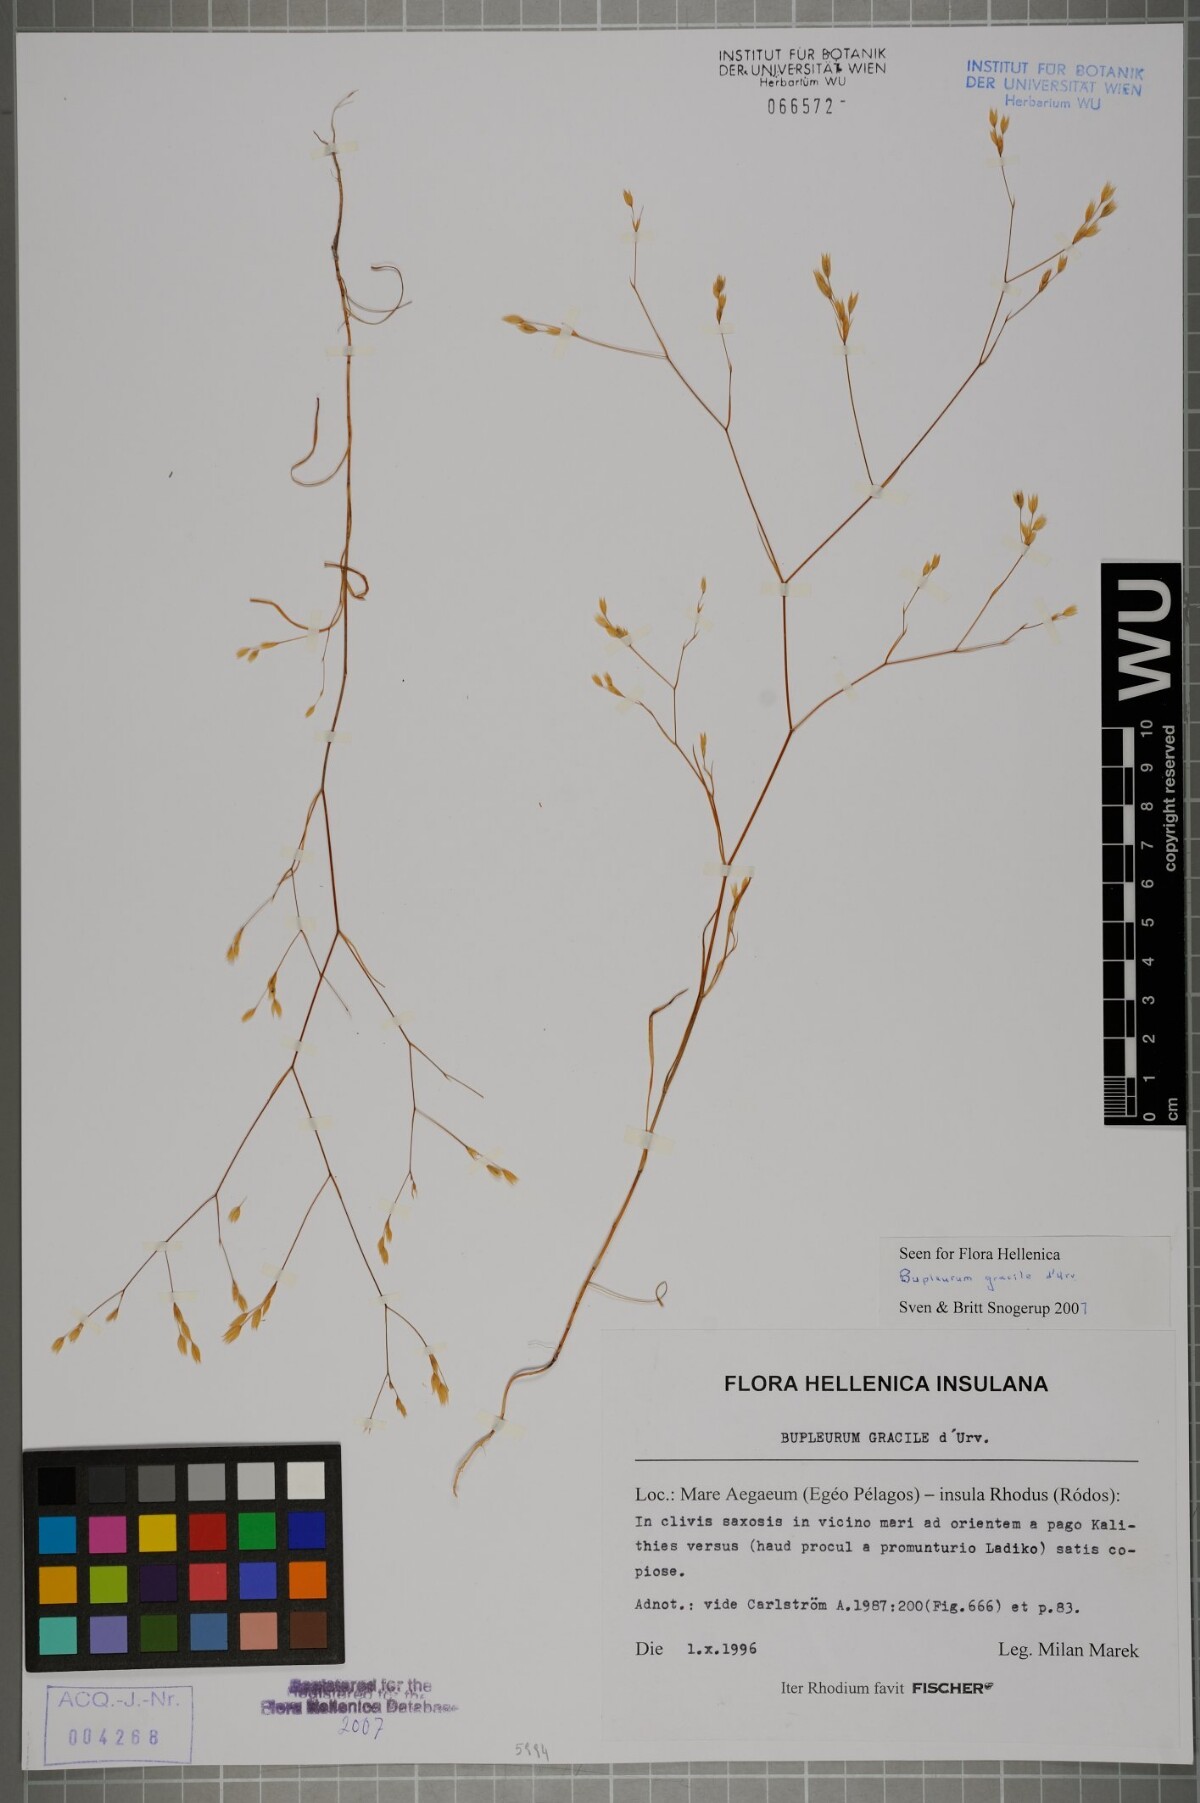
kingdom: Plantae
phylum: Tracheophyta
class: Magnoliopsida
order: Apiales
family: Apiaceae
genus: Bupleurum
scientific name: Bupleurum gracile
